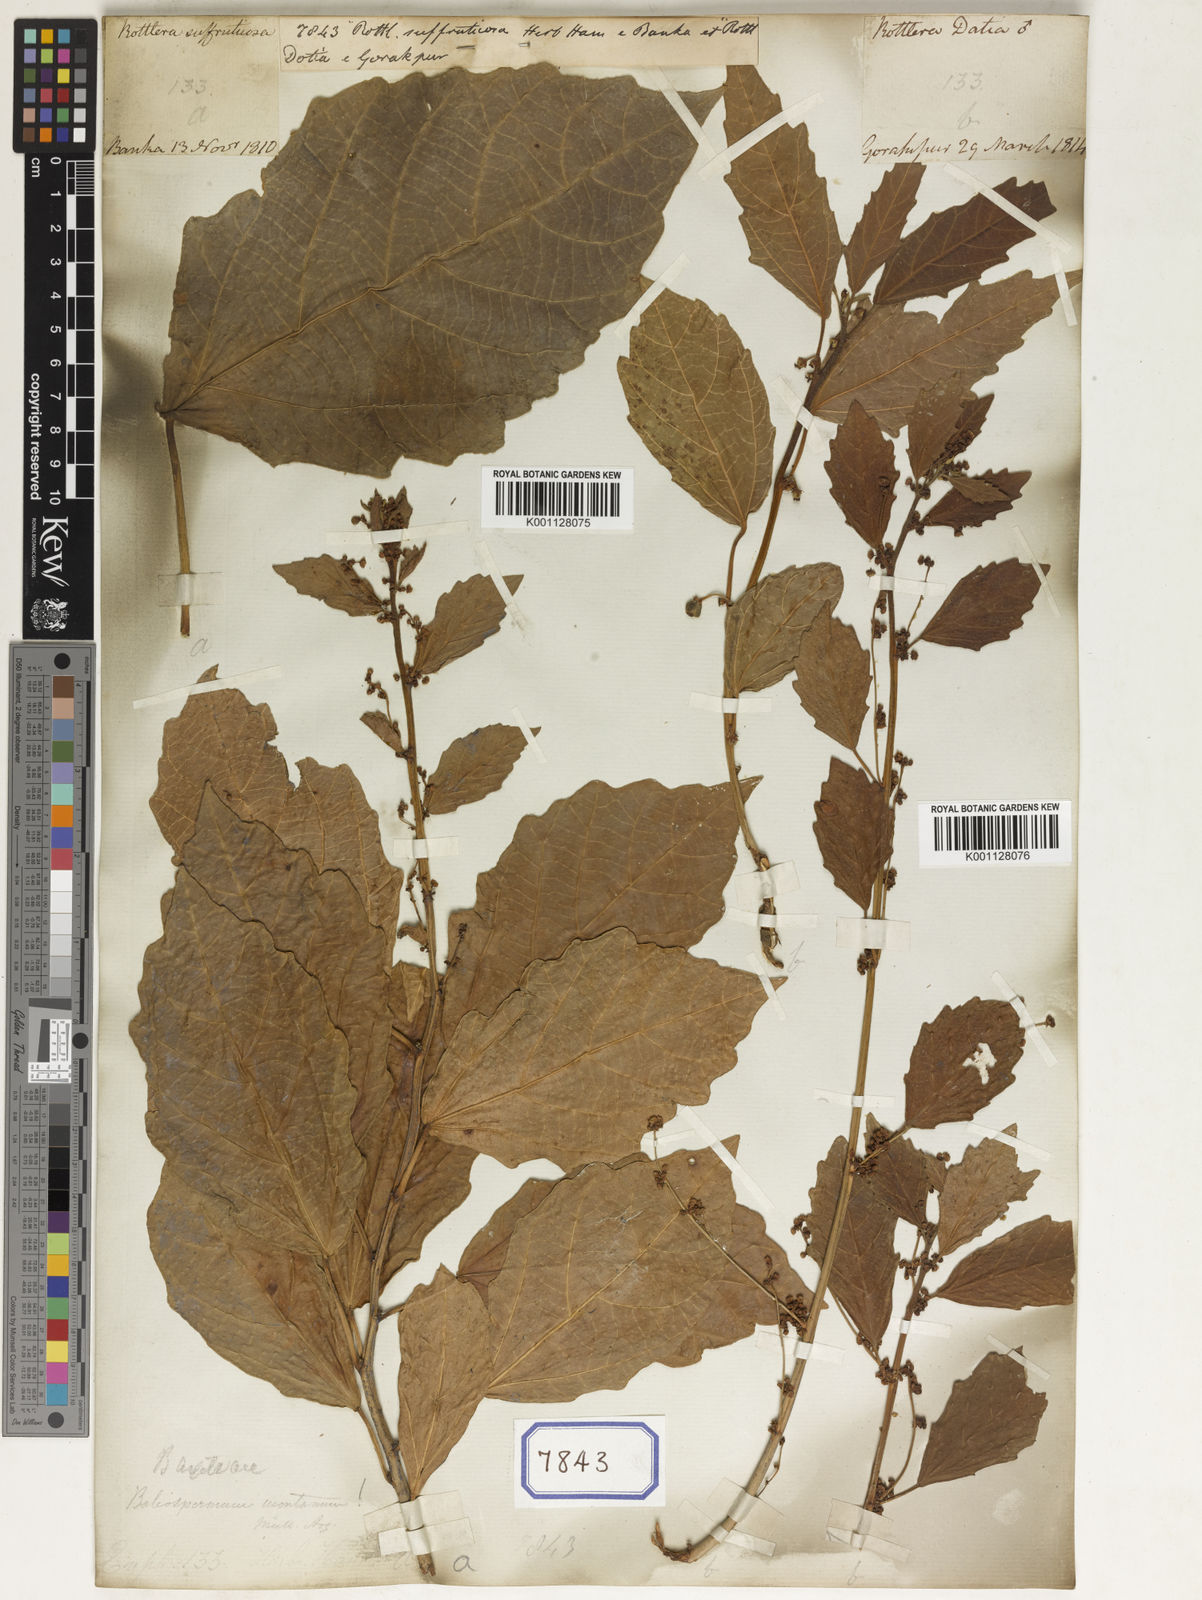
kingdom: Plantae
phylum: Tracheophyta
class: Magnoliopsida
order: Malpighiales
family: Euphorbiaceae
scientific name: Euphorbiaceae
